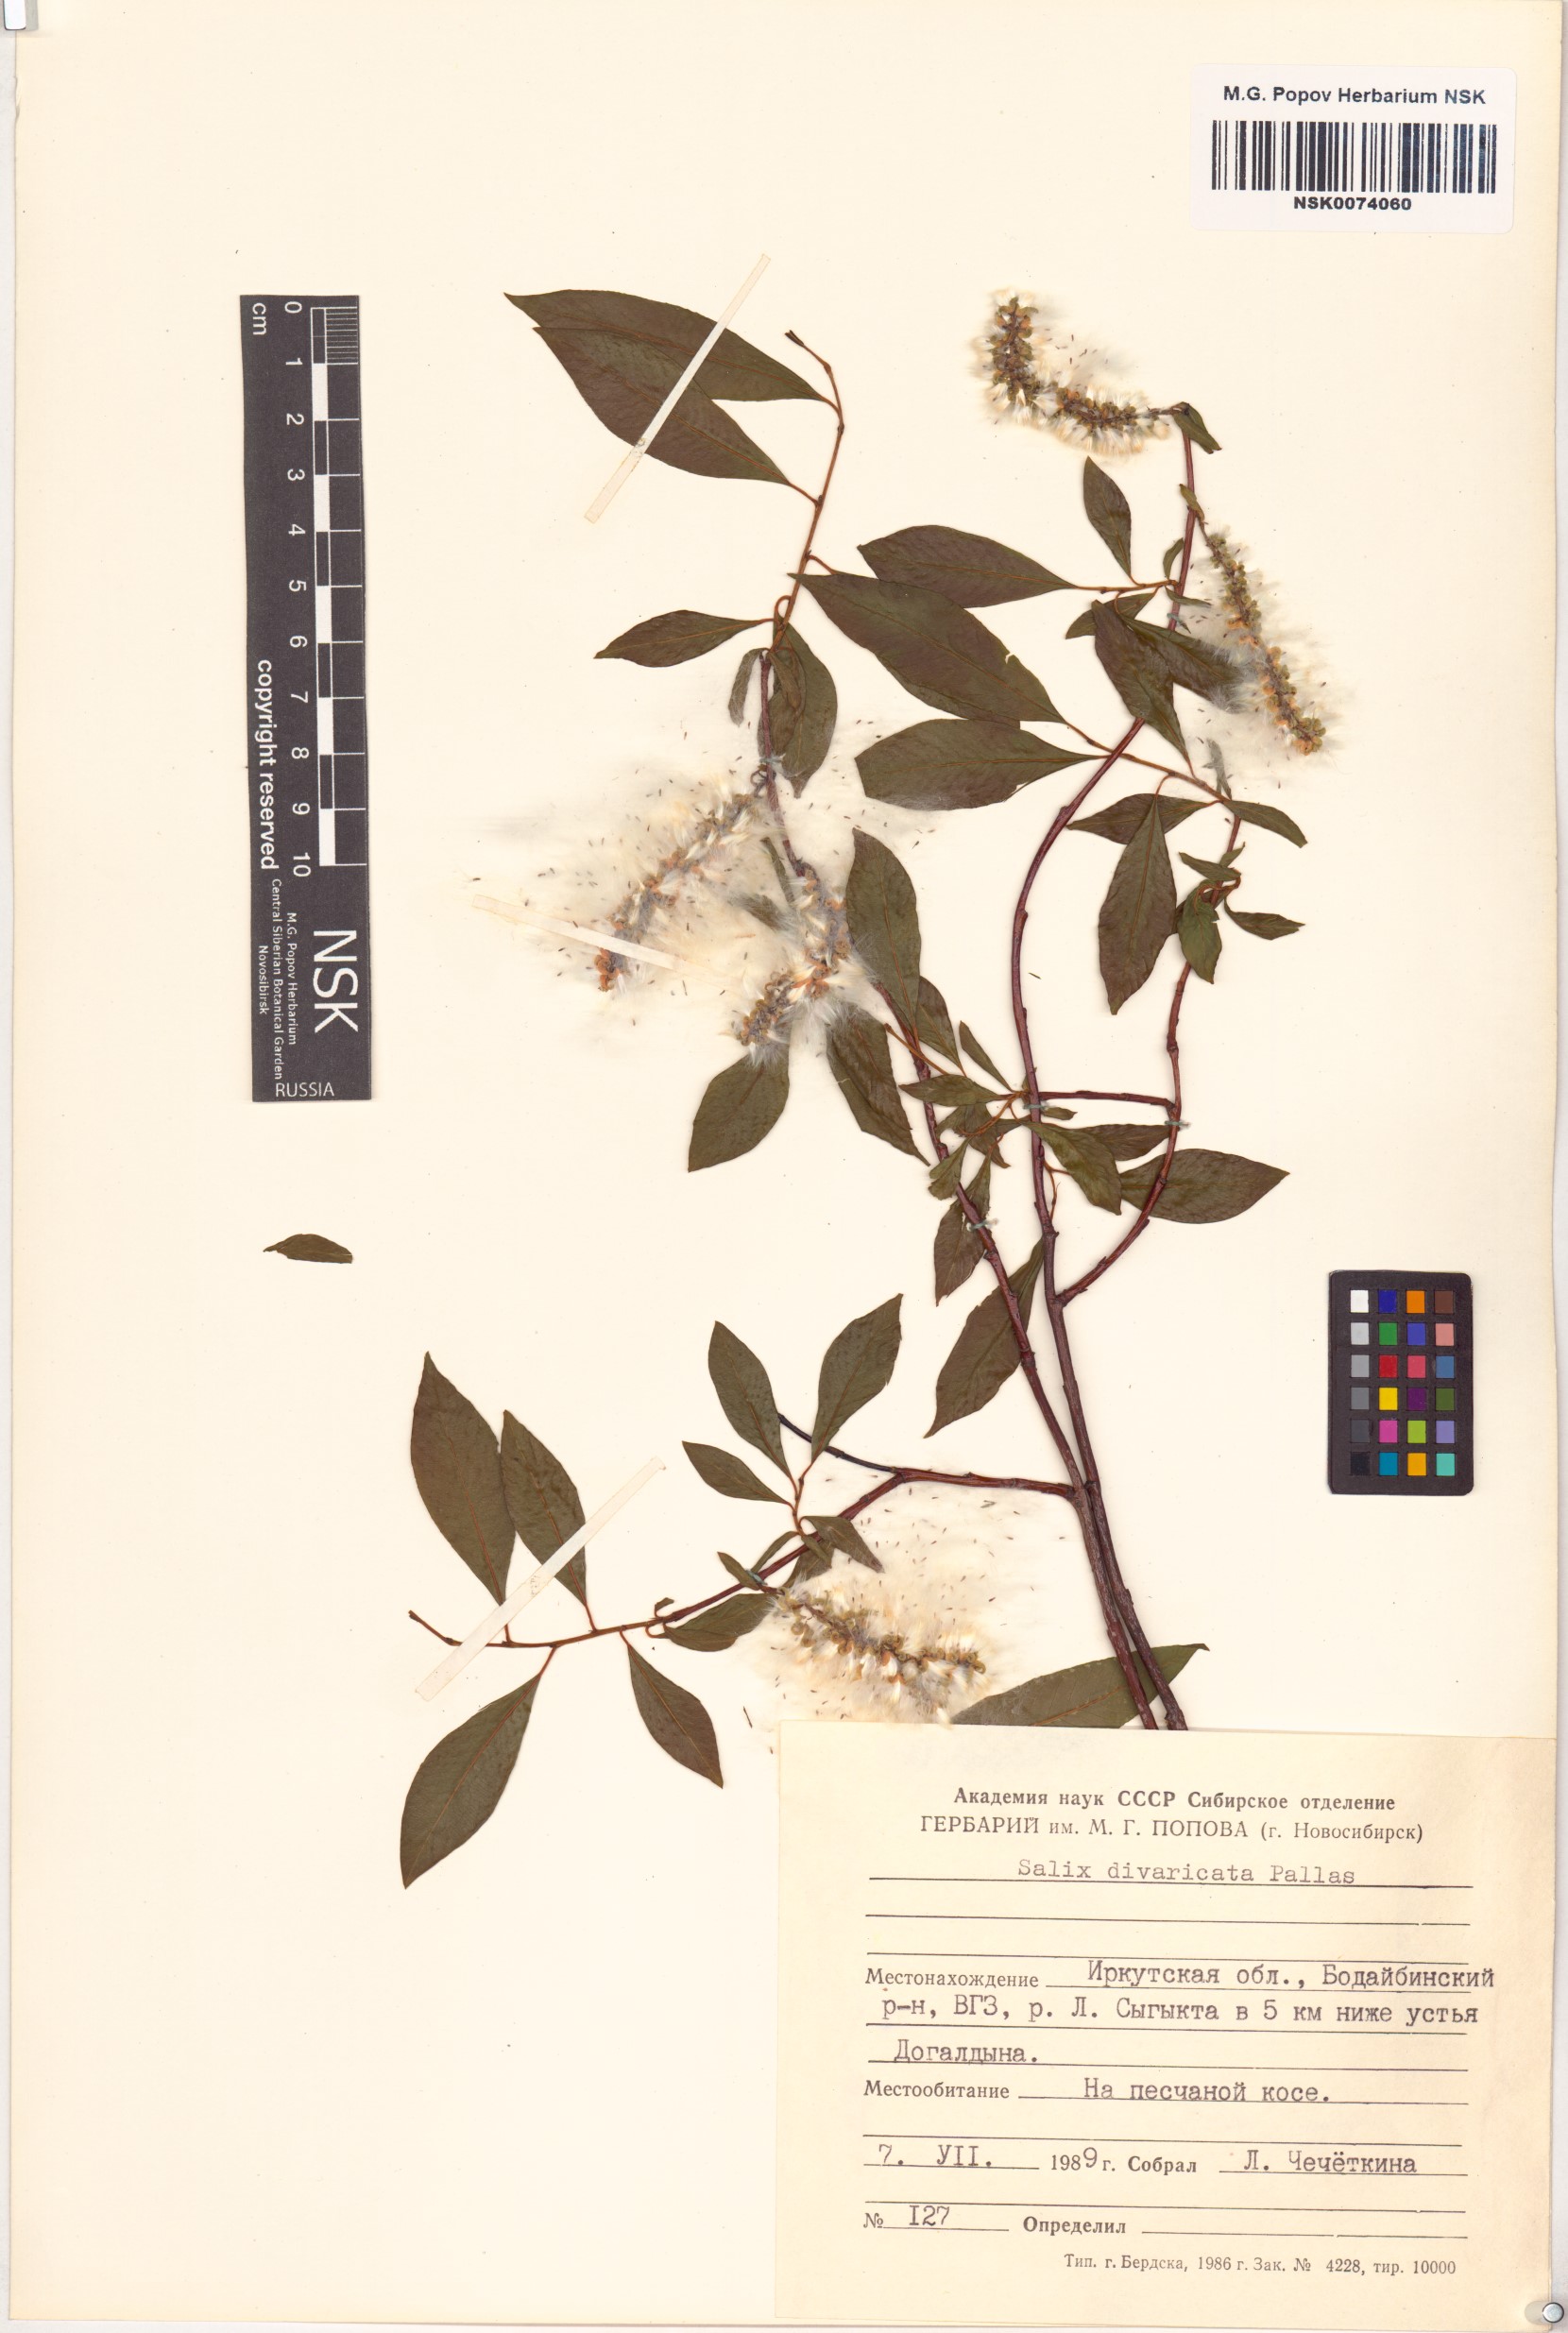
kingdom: Plantae
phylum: Tracheophyta
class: Magnoliopsida
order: Malpighiales
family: Salicaceae
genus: Salix
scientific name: Salix divaricata
